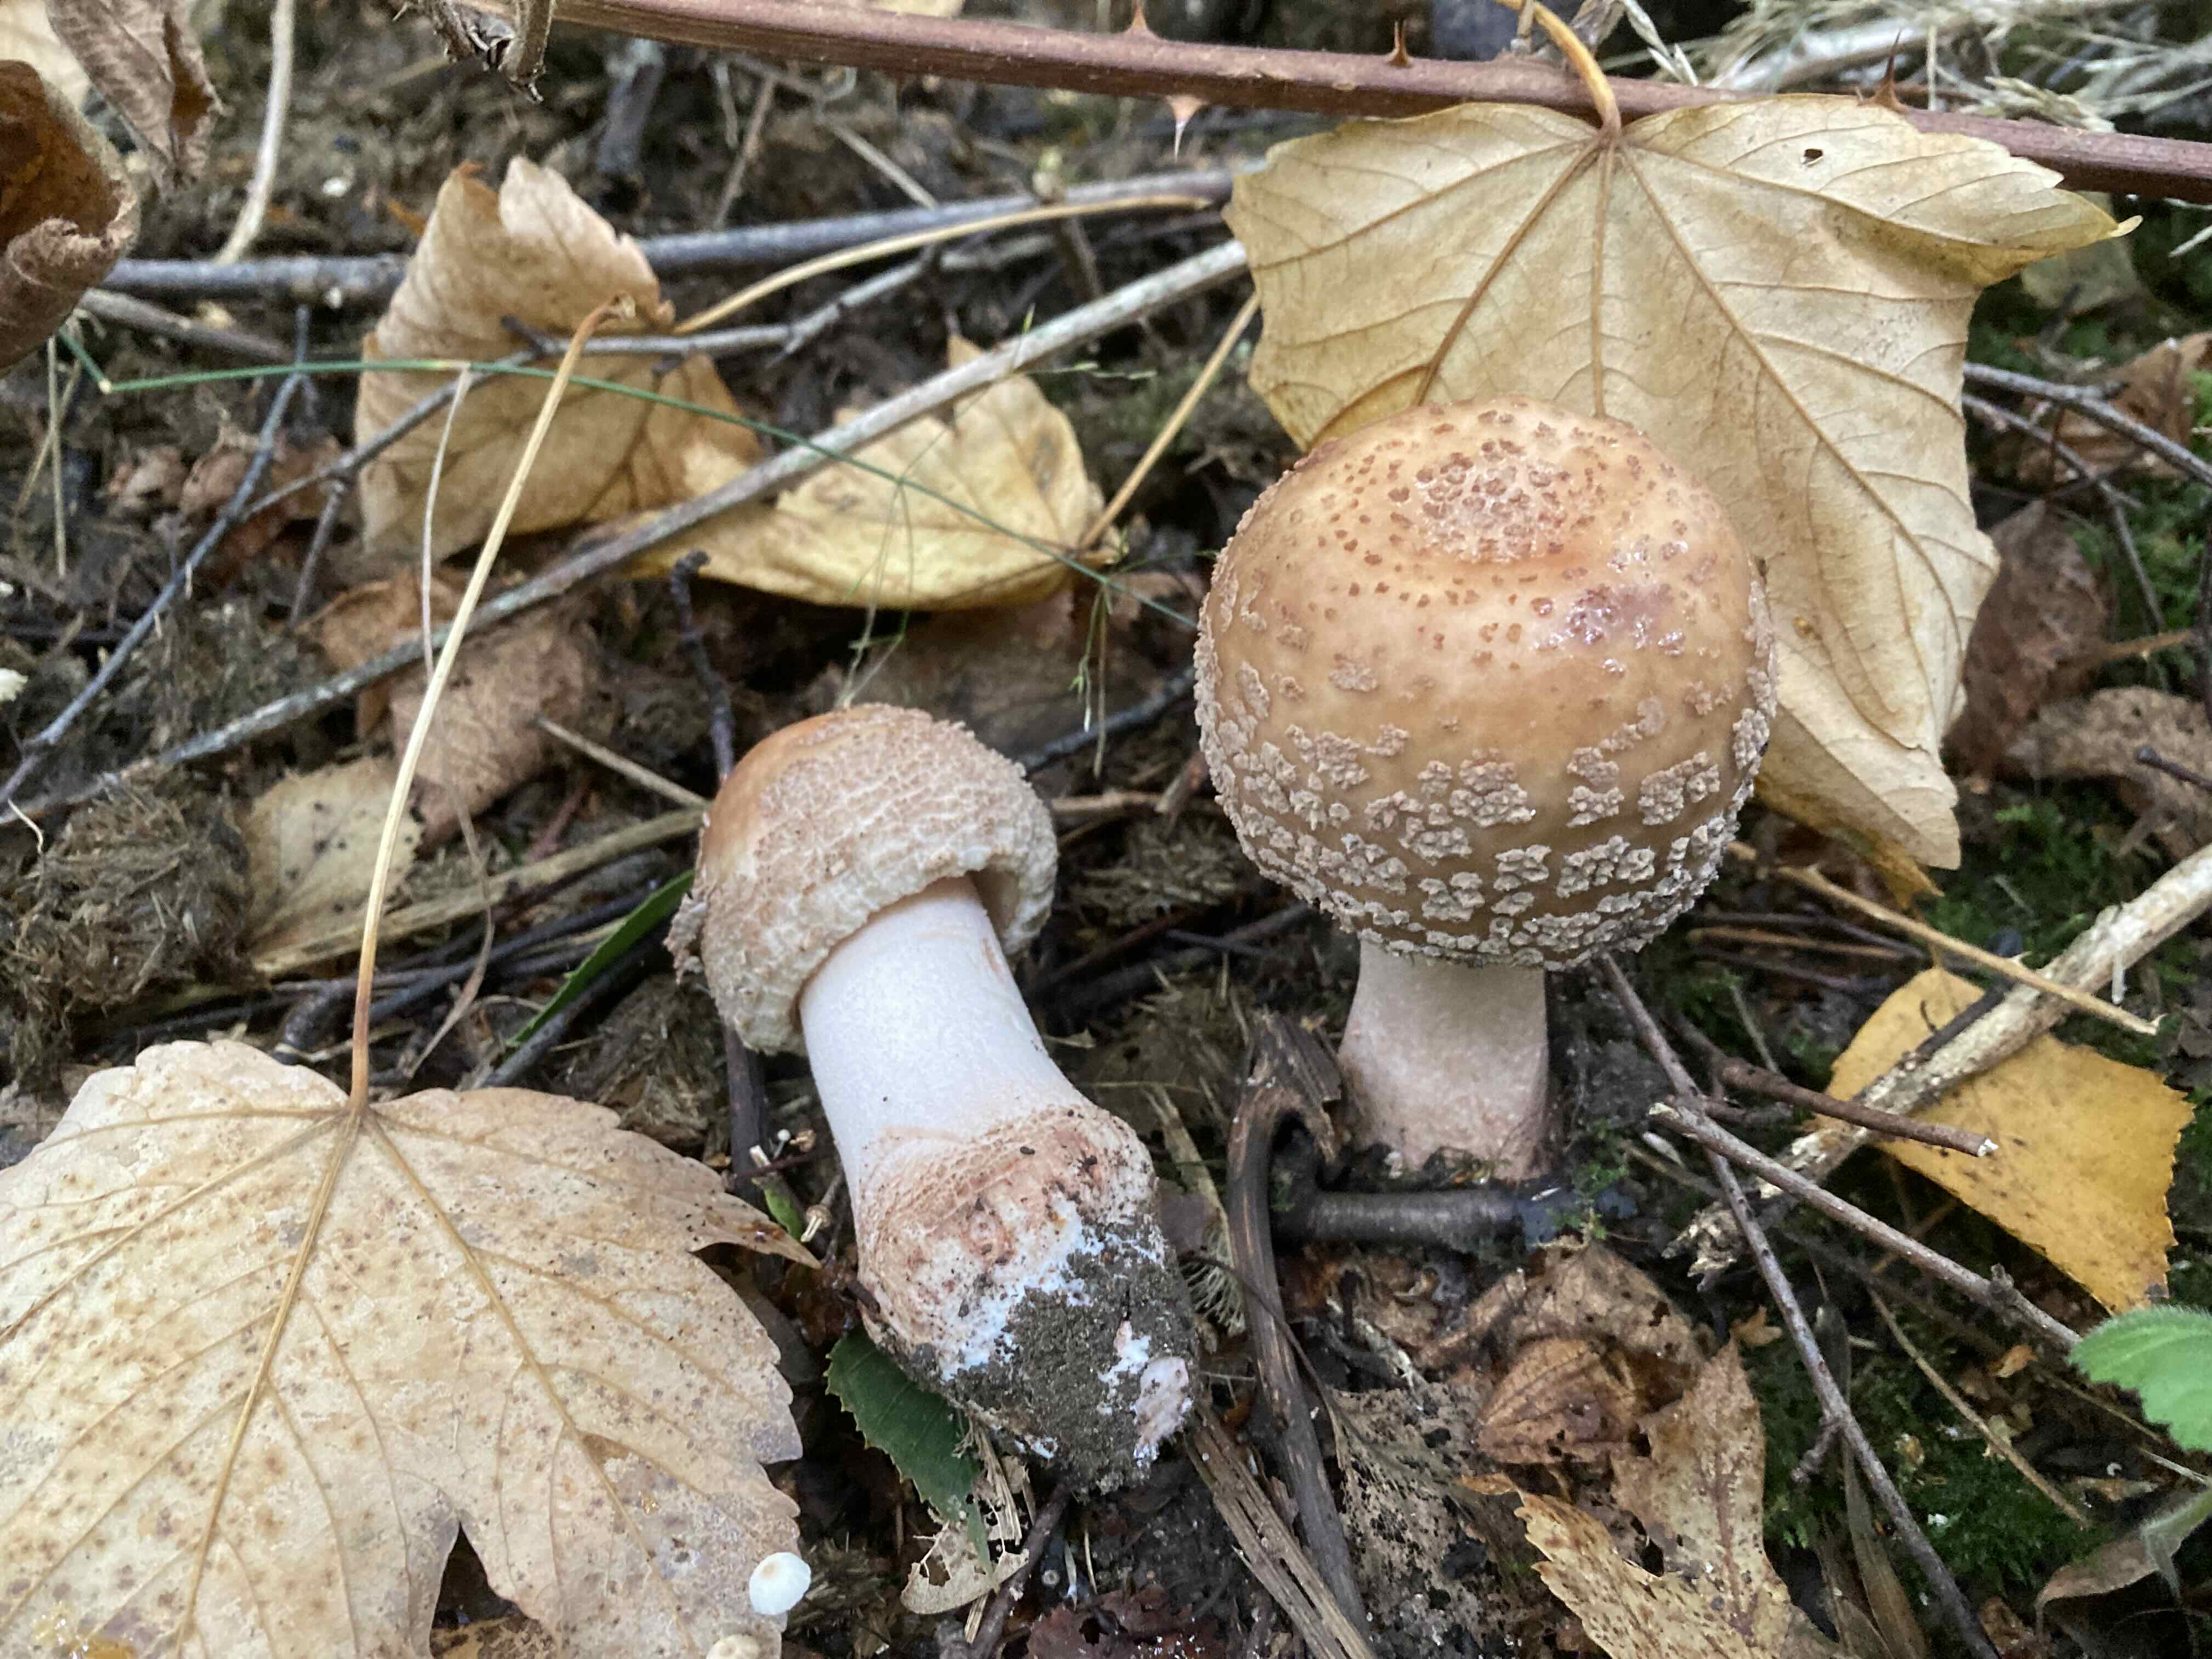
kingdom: Fungi
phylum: Basidiomycota
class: Agaricomycetes
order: Agaricales
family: Amanitaceae
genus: Amanita
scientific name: Amanita rubescens
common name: rødmende fluesvamp
